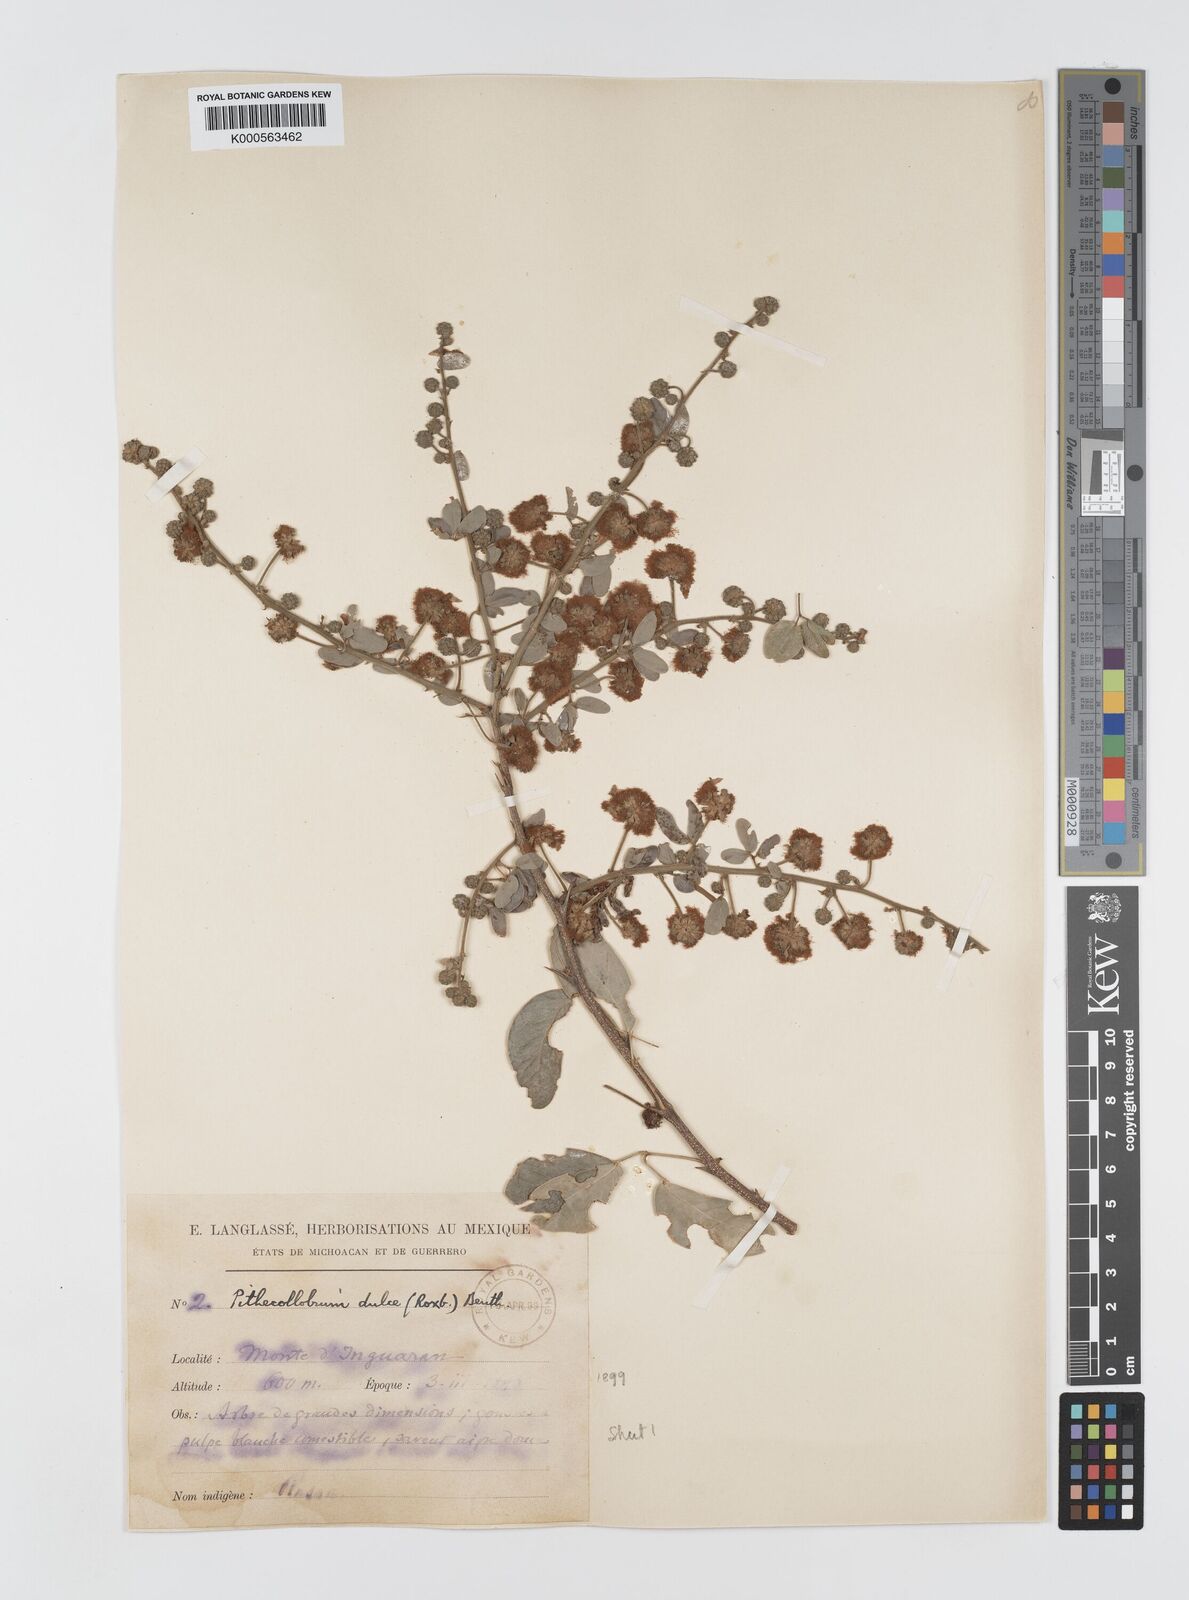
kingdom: Plantae
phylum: Tracheophyta
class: Magnoliopsida
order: Fabales
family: Fabaceae
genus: Pithecellobium
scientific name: Pithecellobium dulce
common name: Monkeypod
